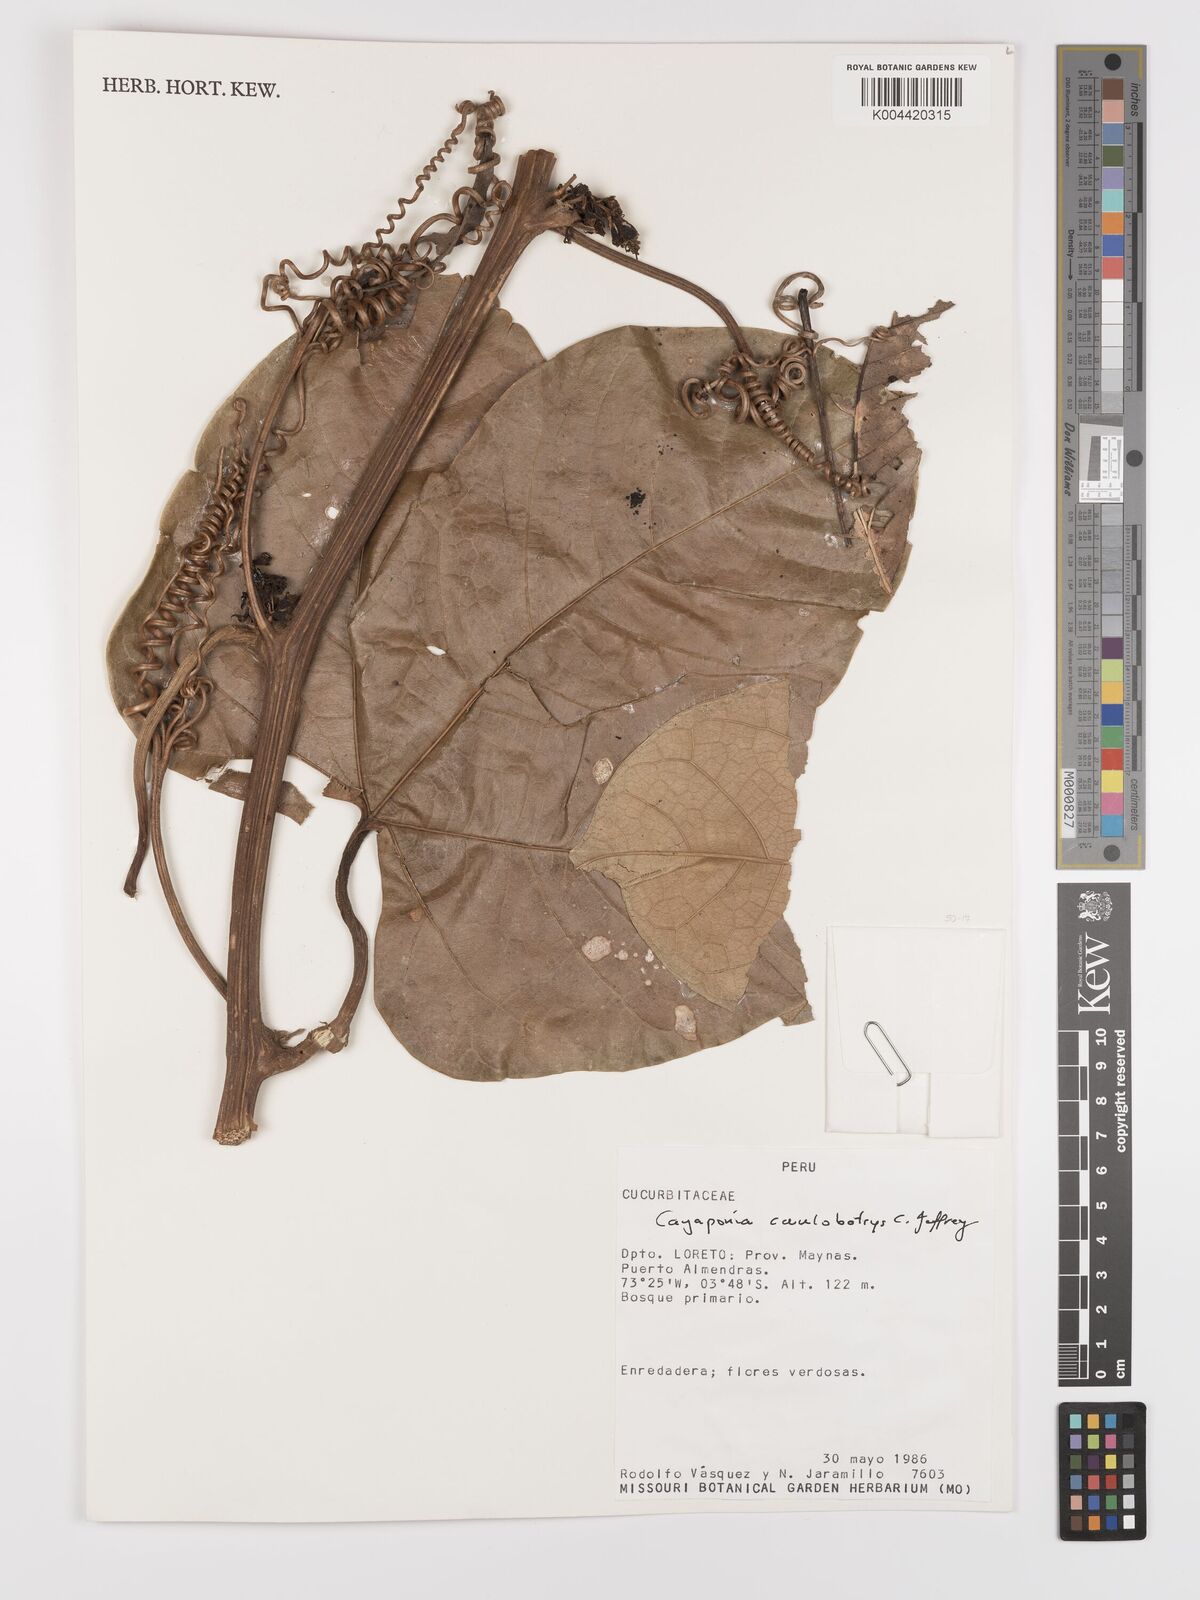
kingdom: Plantae
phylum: Tracheophyta
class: Magnoliopsida
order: Cucurbitales
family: Cucurbitaceae
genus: Cayaponia
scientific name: Cayaponia caulobotrys
